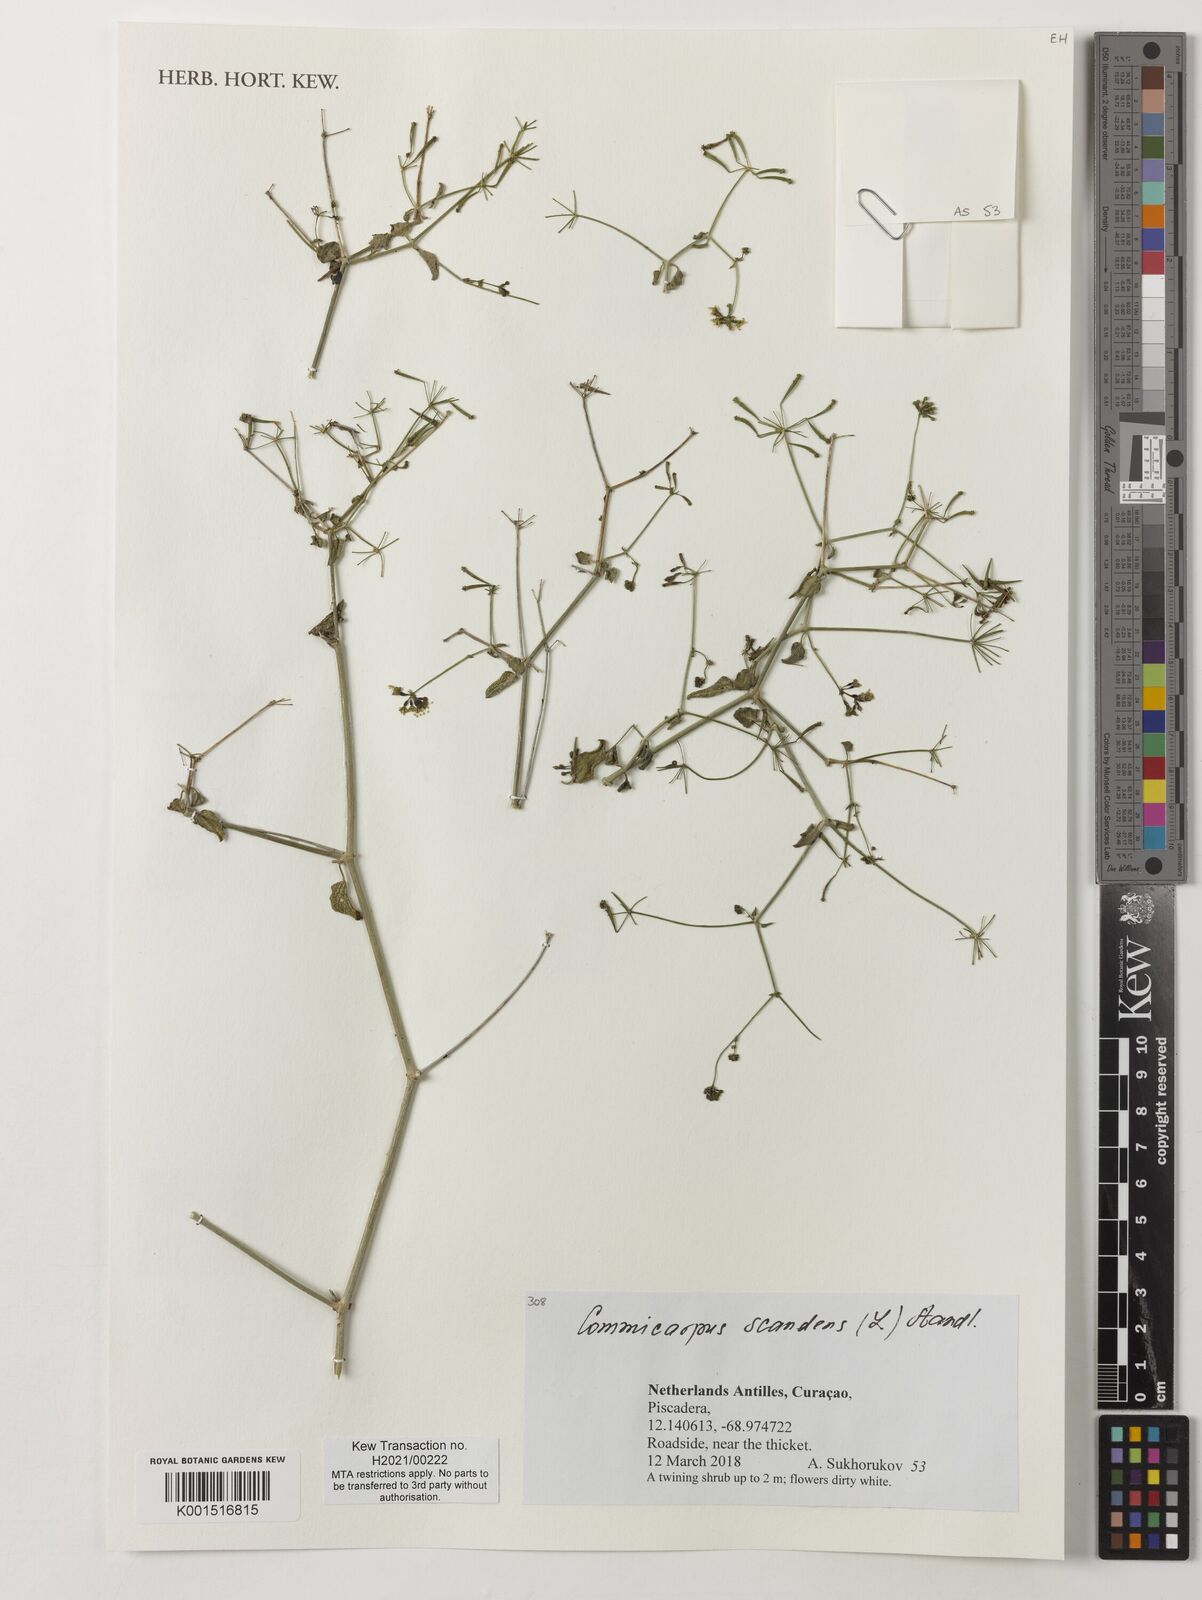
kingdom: Plantae
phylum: Tracheophyta
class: Magnoliopsida
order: Caryophyllales
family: Nyctaginaceae
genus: Commicarpus
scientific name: Commicarpus scandens
